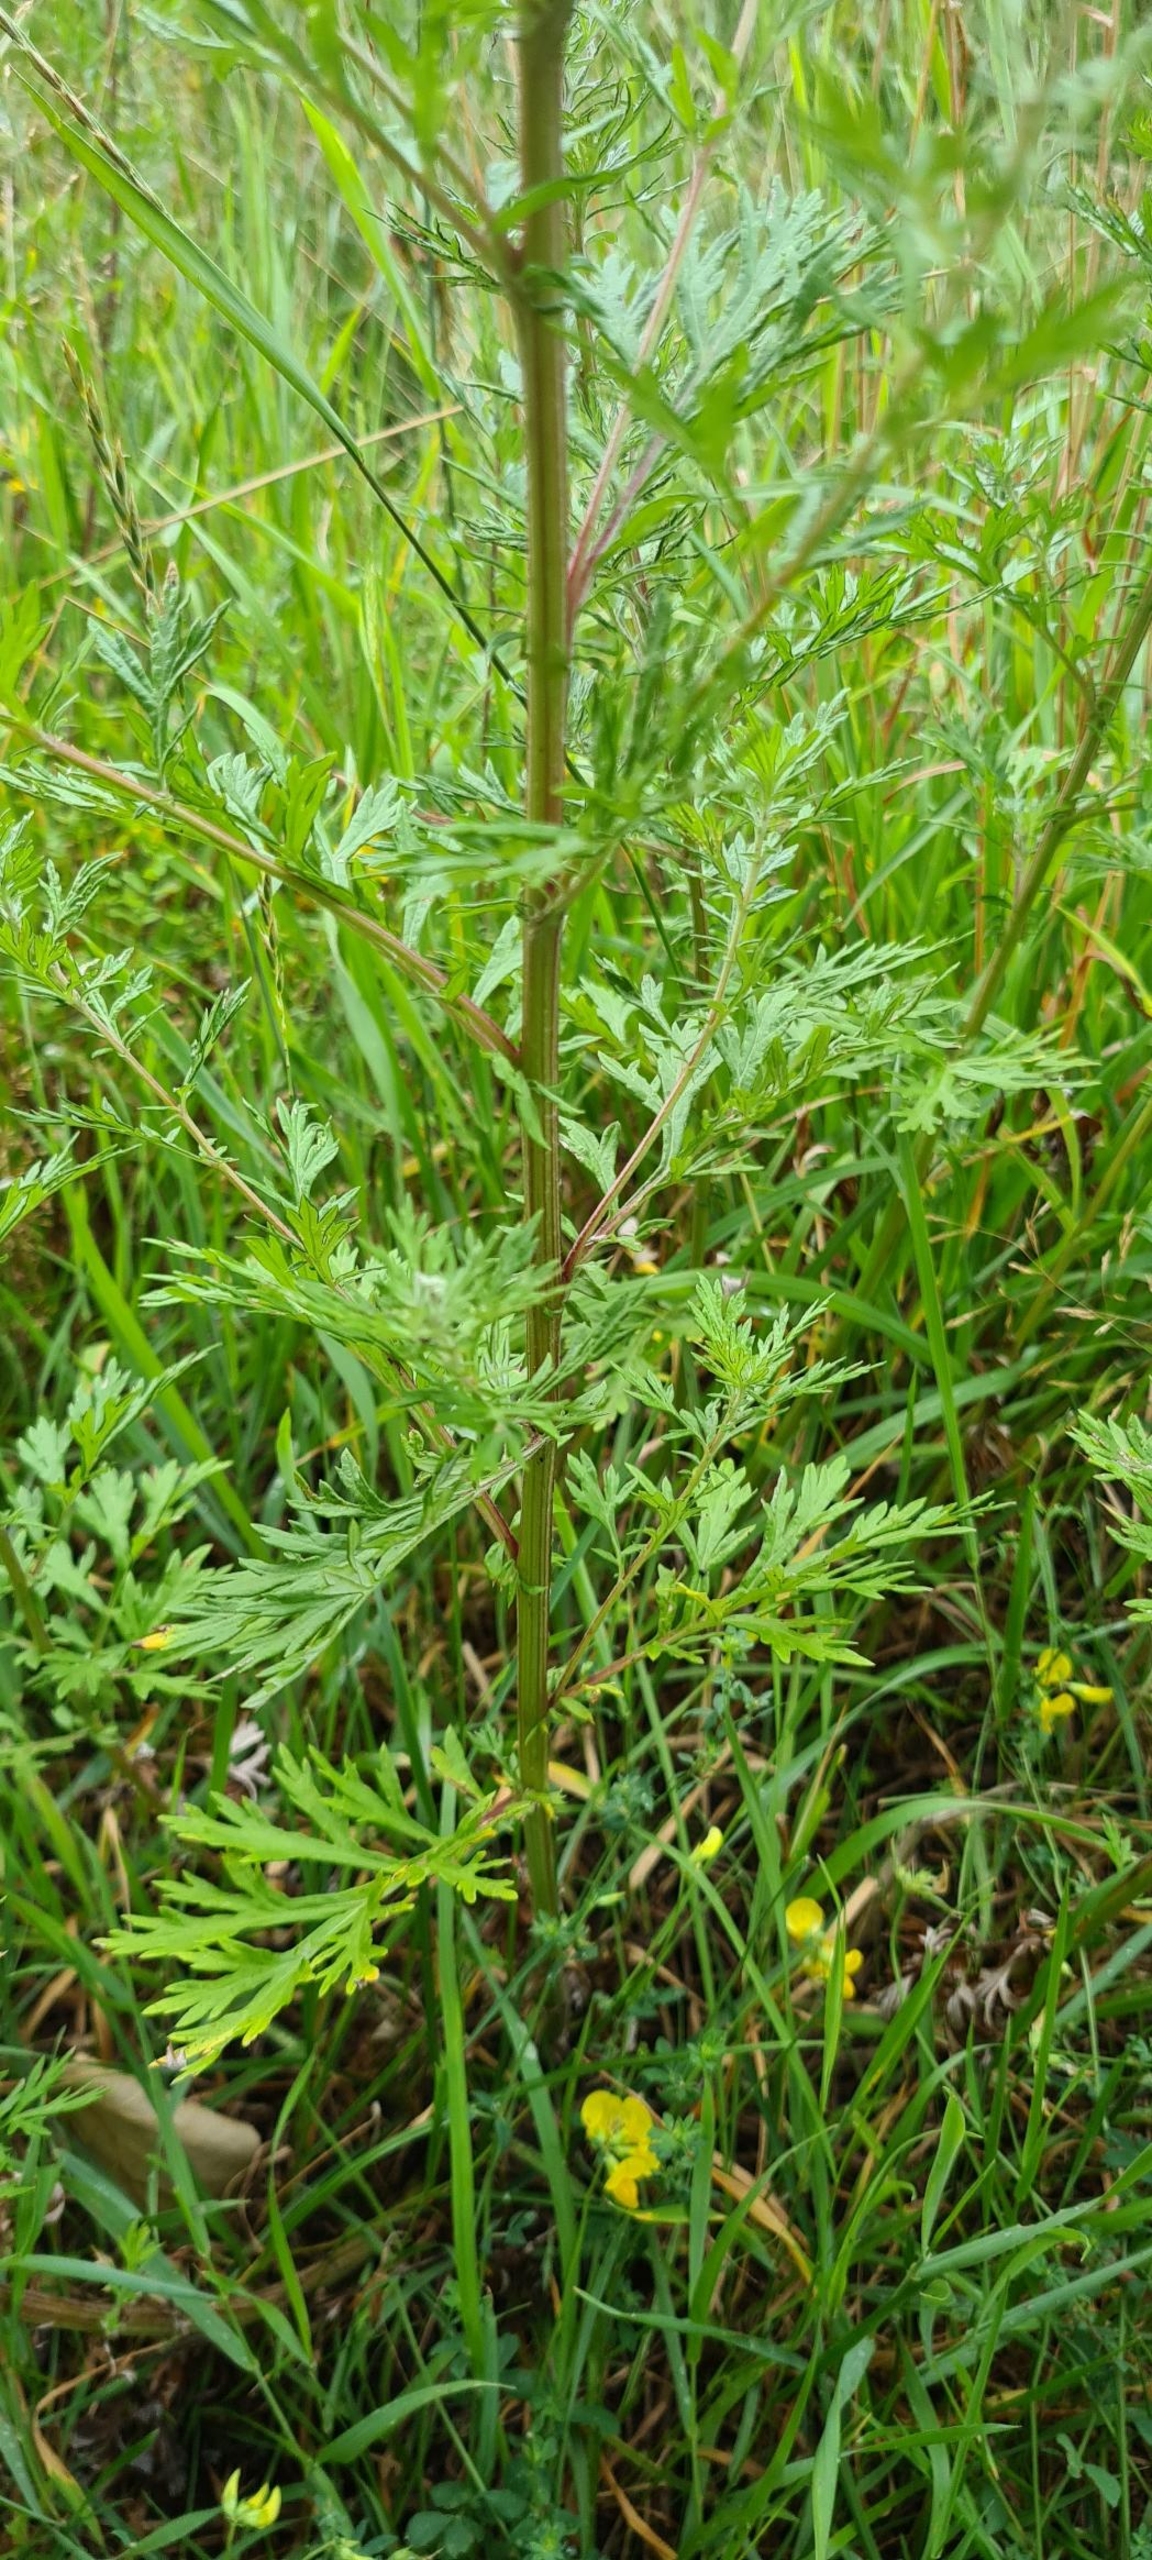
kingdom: Plantae
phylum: Tracheophyta
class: Magnoliopsida
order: Asterales
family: Asteraceae
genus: Artemisia
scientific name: Artemisia vulgaris
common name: Grå-bynke
